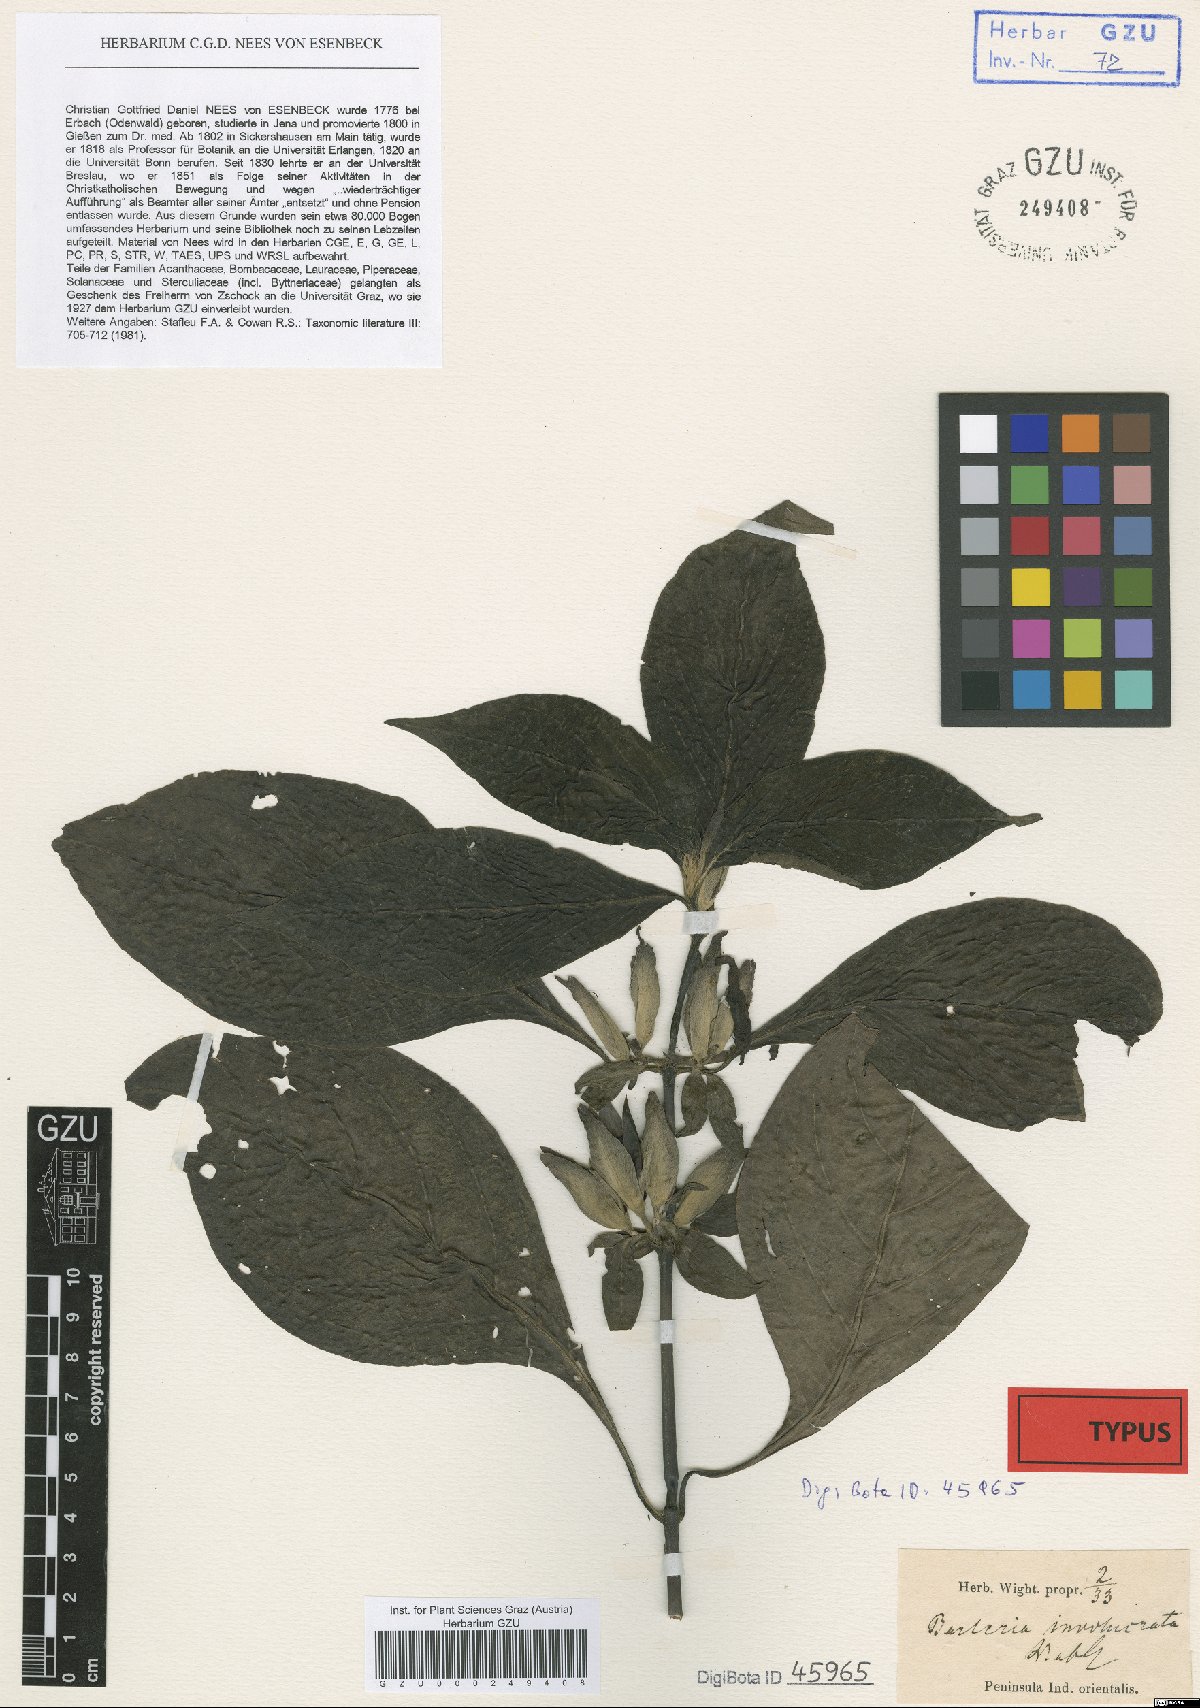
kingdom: Plantae
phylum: Tracheophyta
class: Magnoliopsida
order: Lamiales
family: Acanthaceae
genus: Barleria
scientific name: Barleria involucrata
